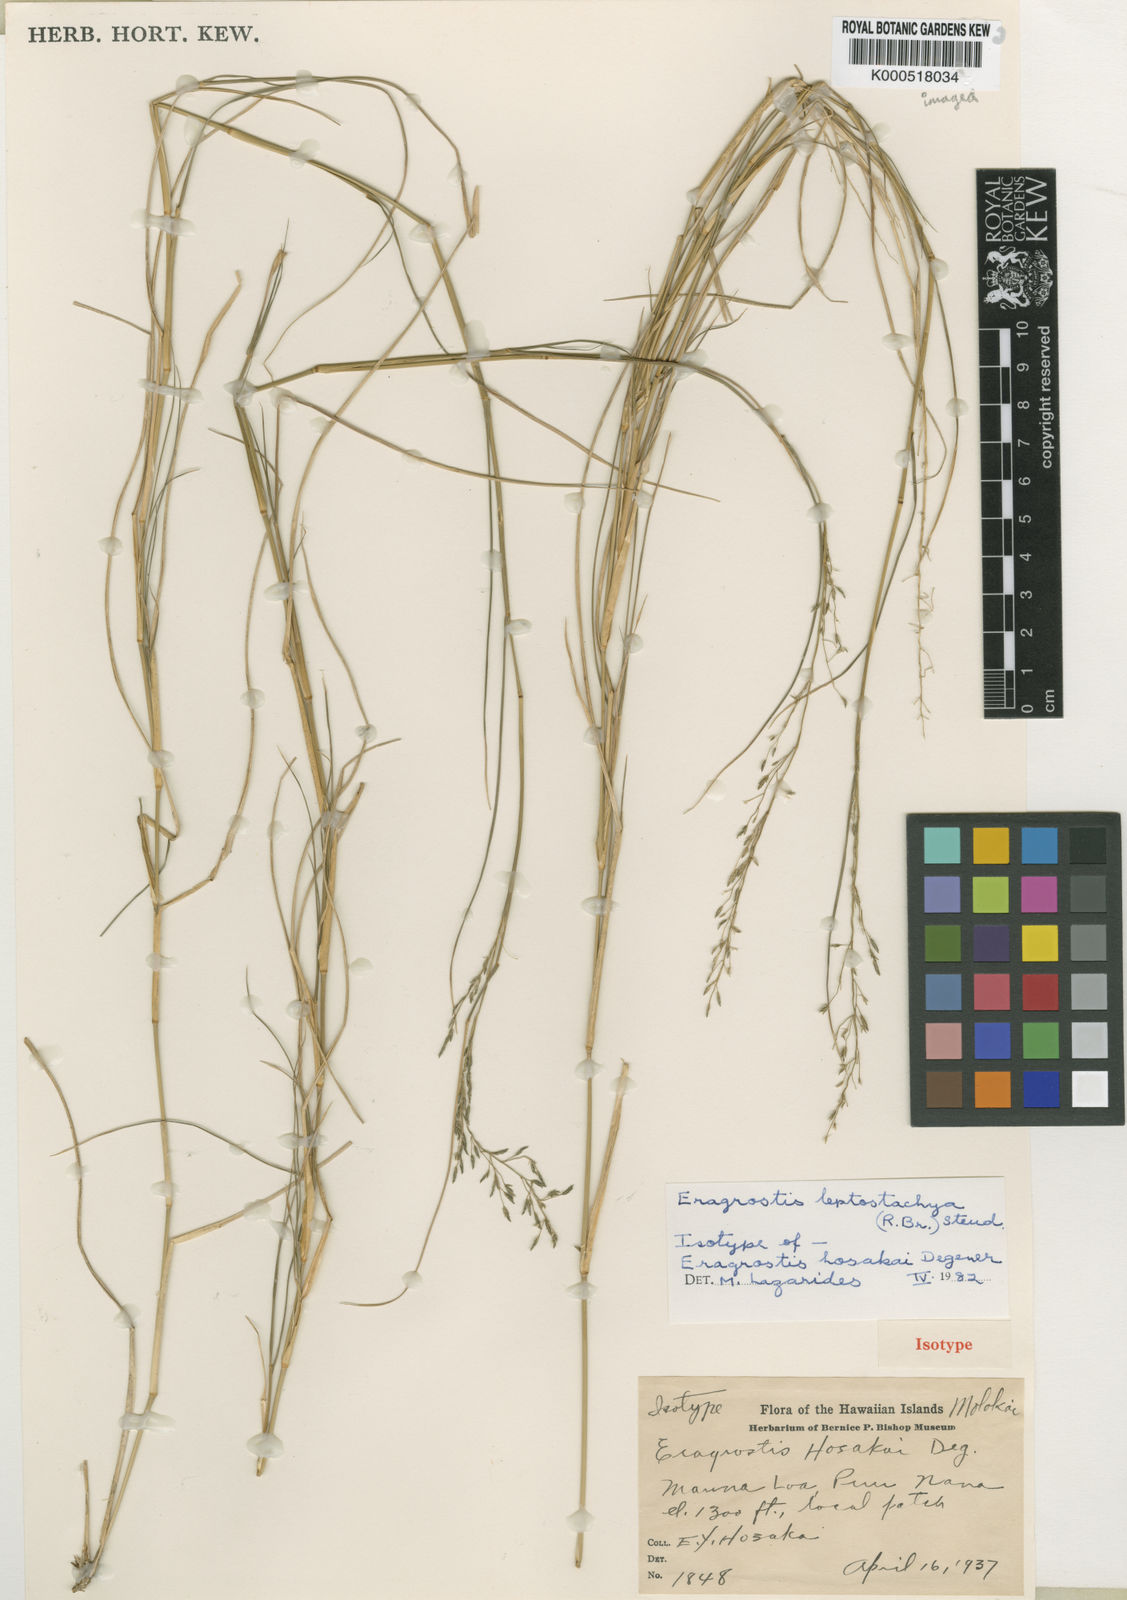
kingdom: Plantae
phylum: Tracheophyta
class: Liliopsida
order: Poales
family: Poaceae
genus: Eragrostis
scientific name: Eragrostis leptostachya
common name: Australian lovegrass
